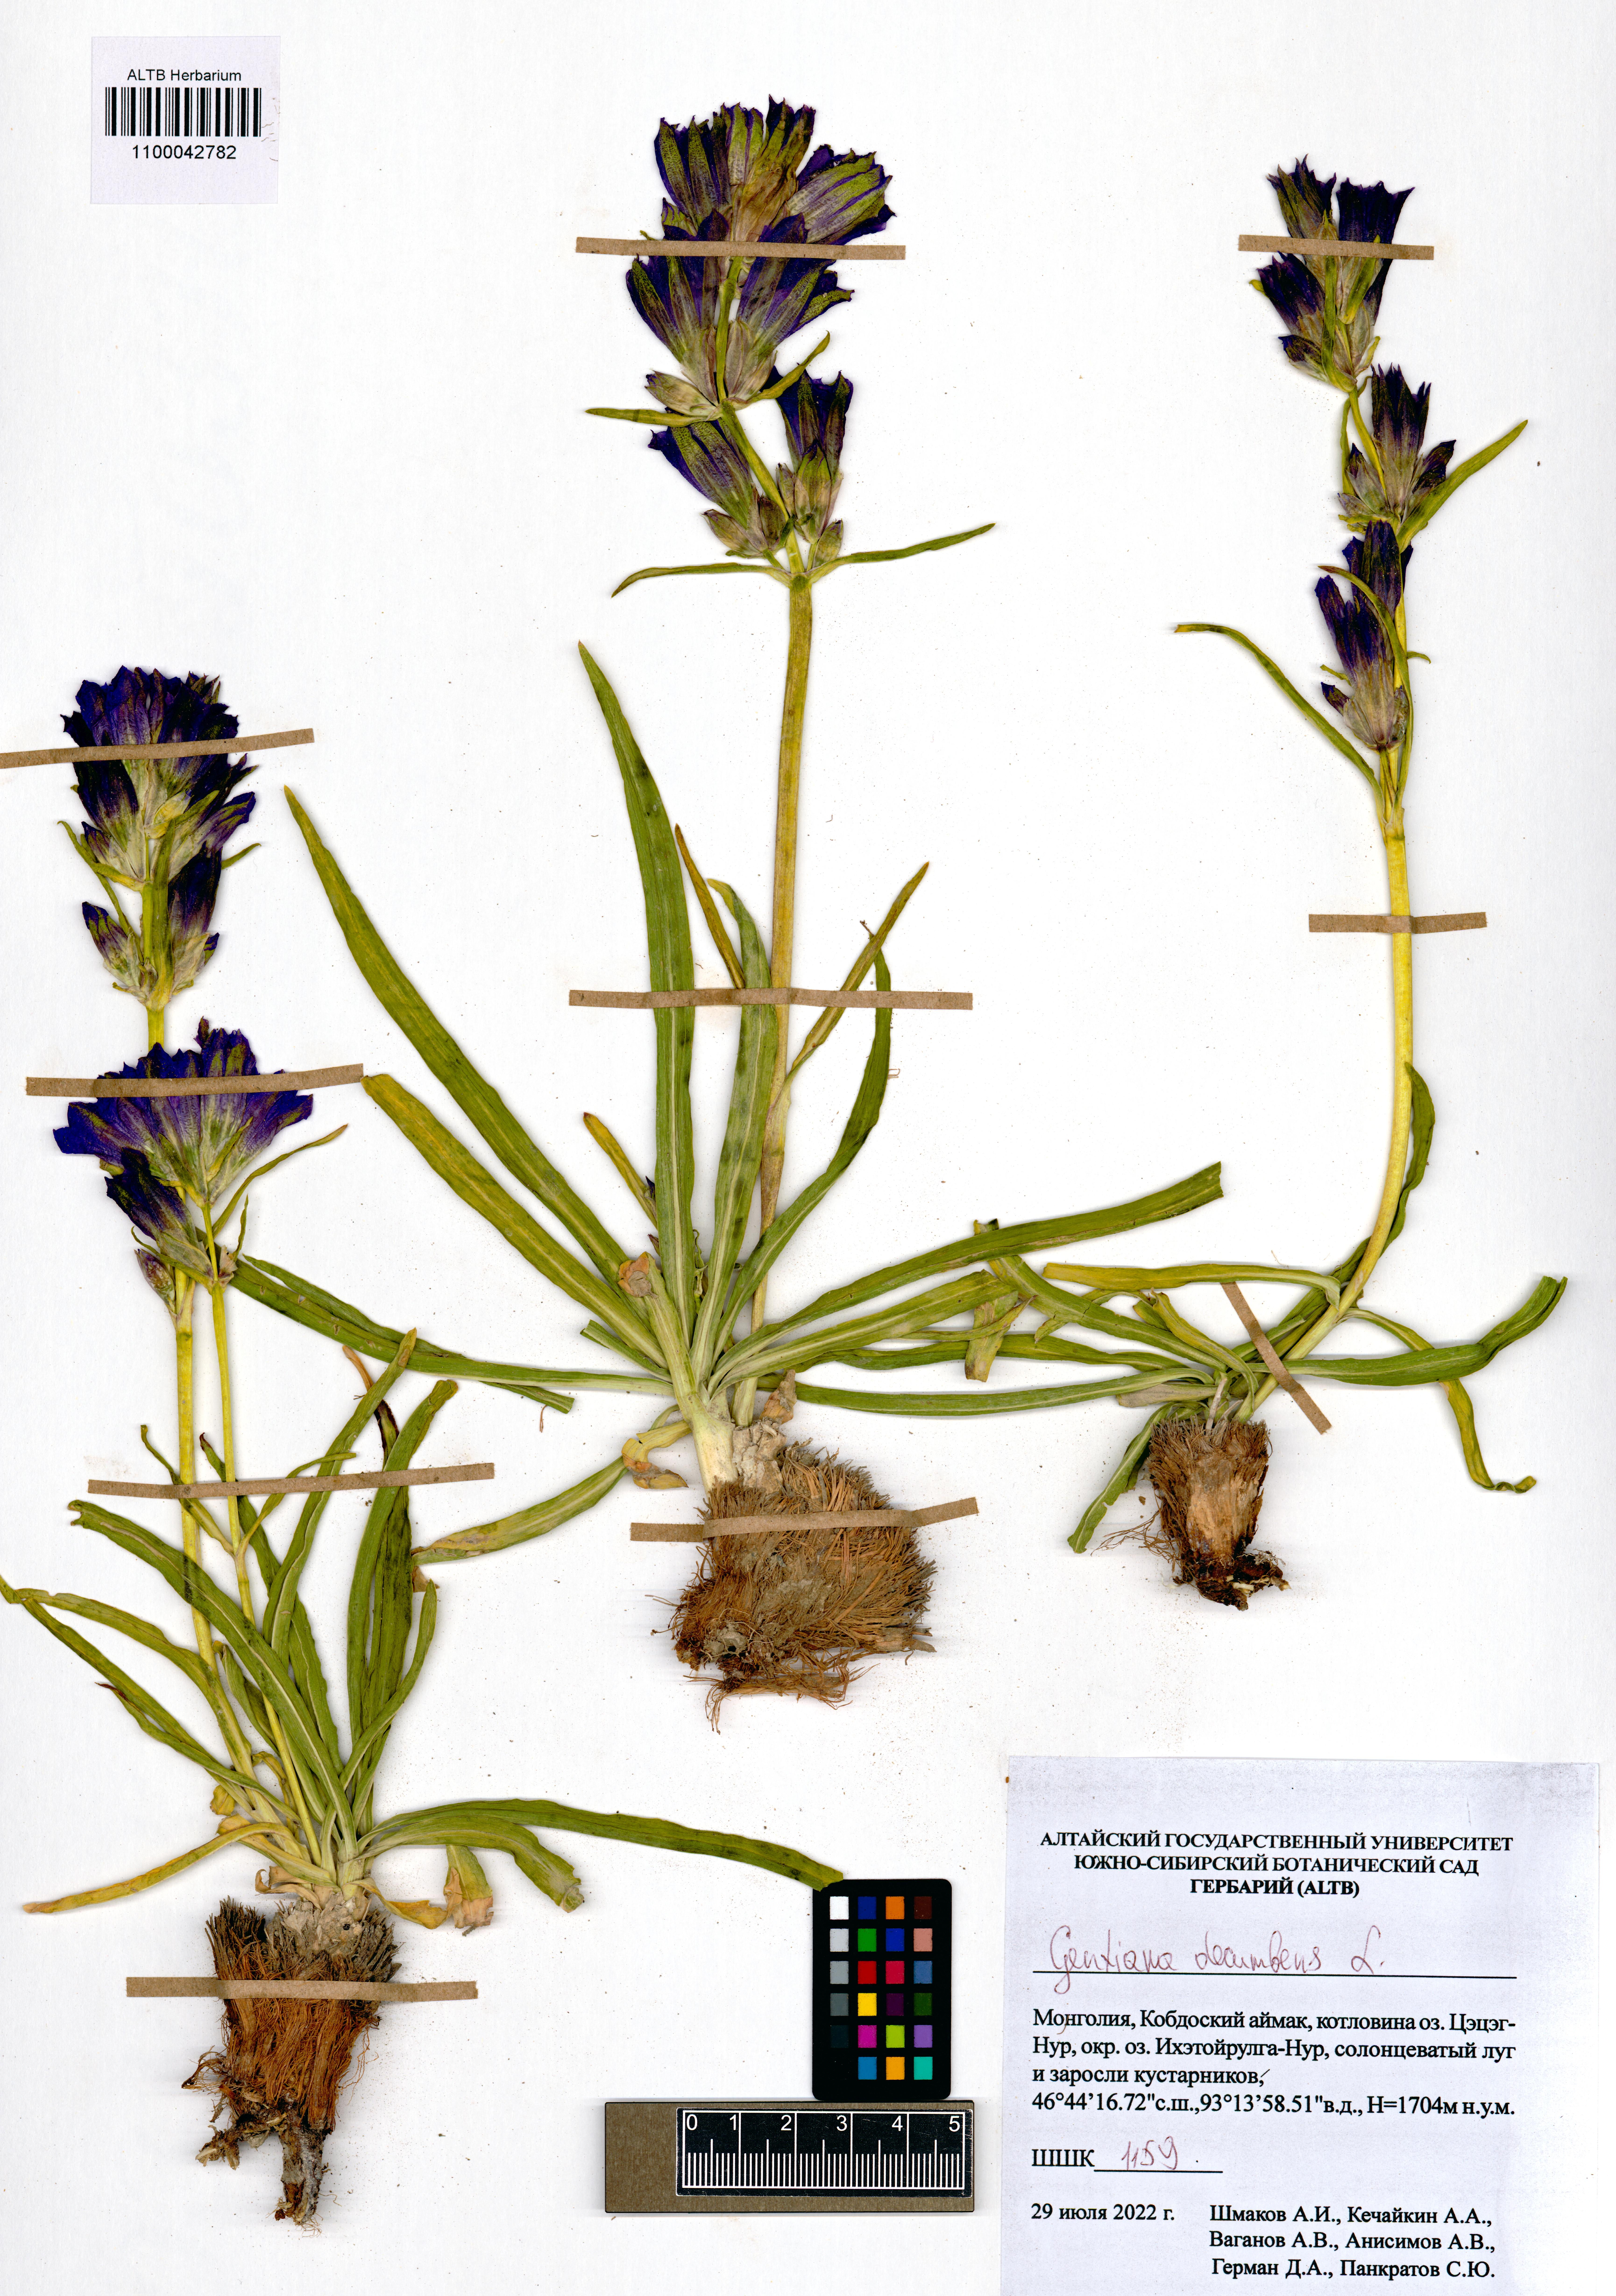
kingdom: Plantae
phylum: Tracheophyta
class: Magnoliopsida
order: Gentianales
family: Gentianaceae
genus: Gentiana
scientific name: Gentiana decumbens
